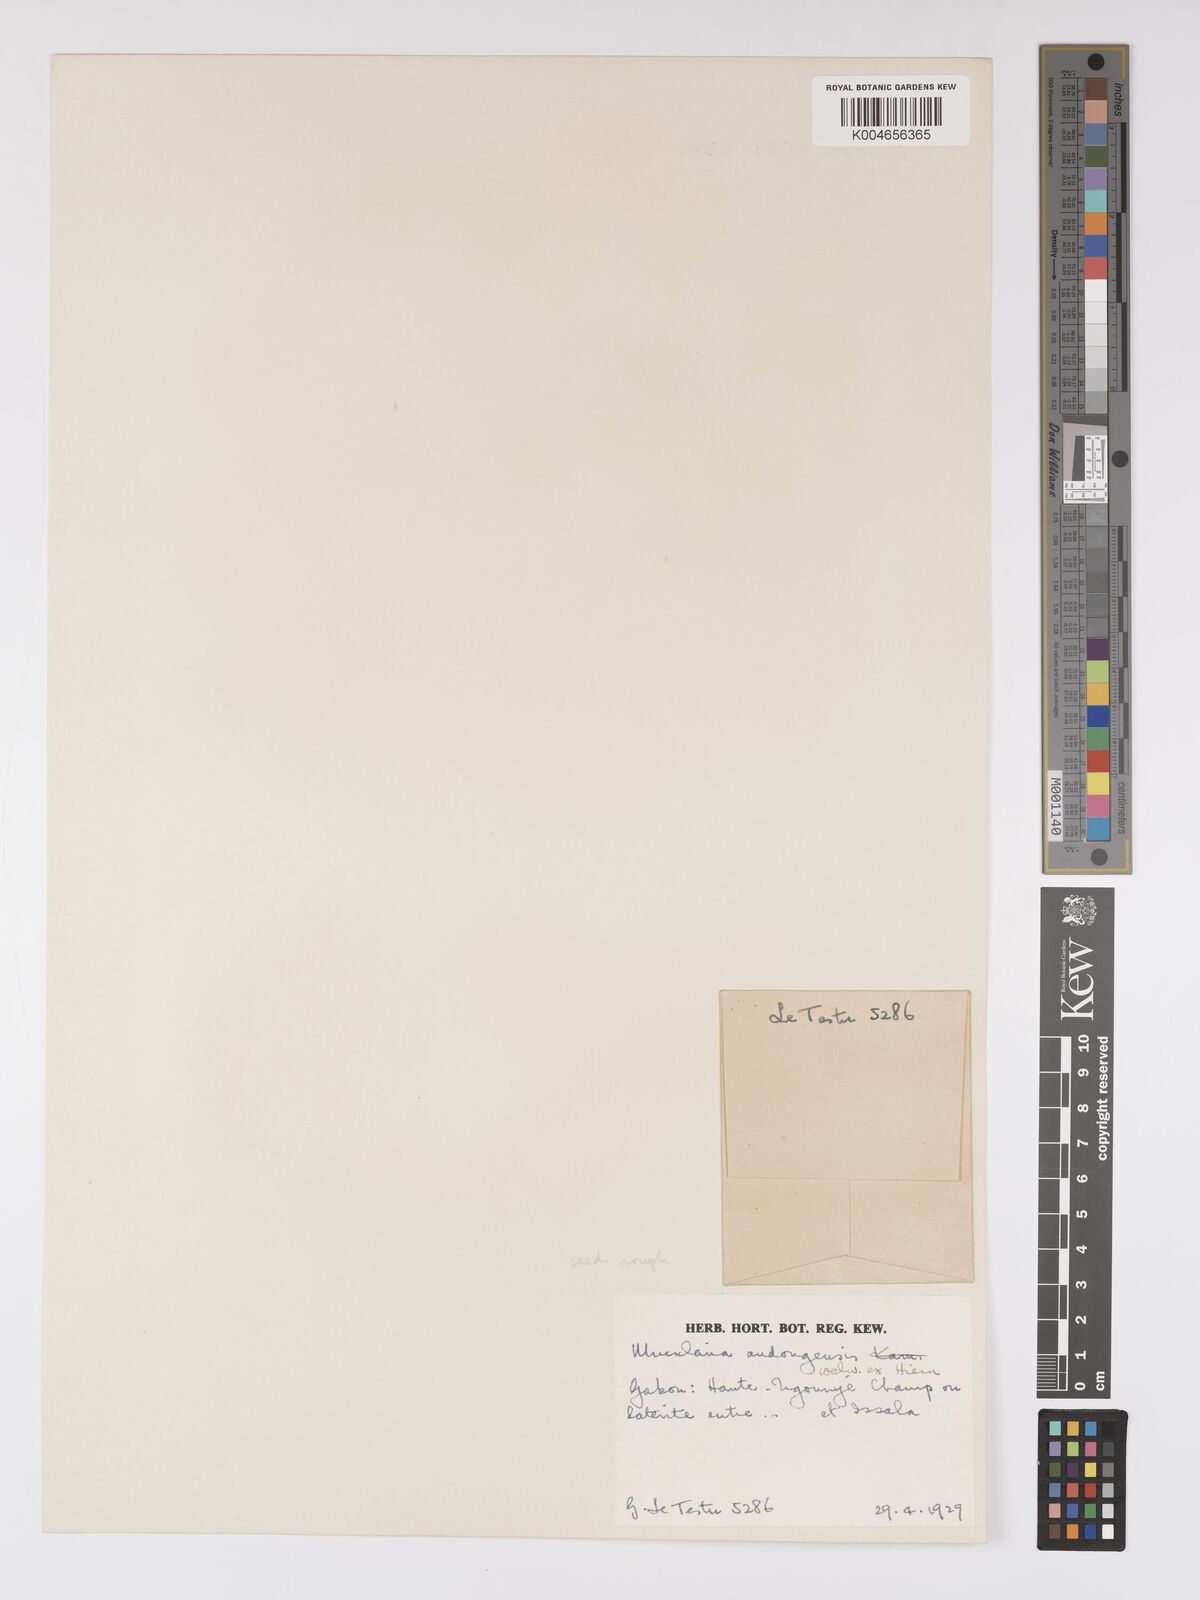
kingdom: Plantae
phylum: Tracheophyta
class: Magnoliopsida
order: Lamiales
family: Lentibulariaceae
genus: Utricularia
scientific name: Utricularia andongensis
